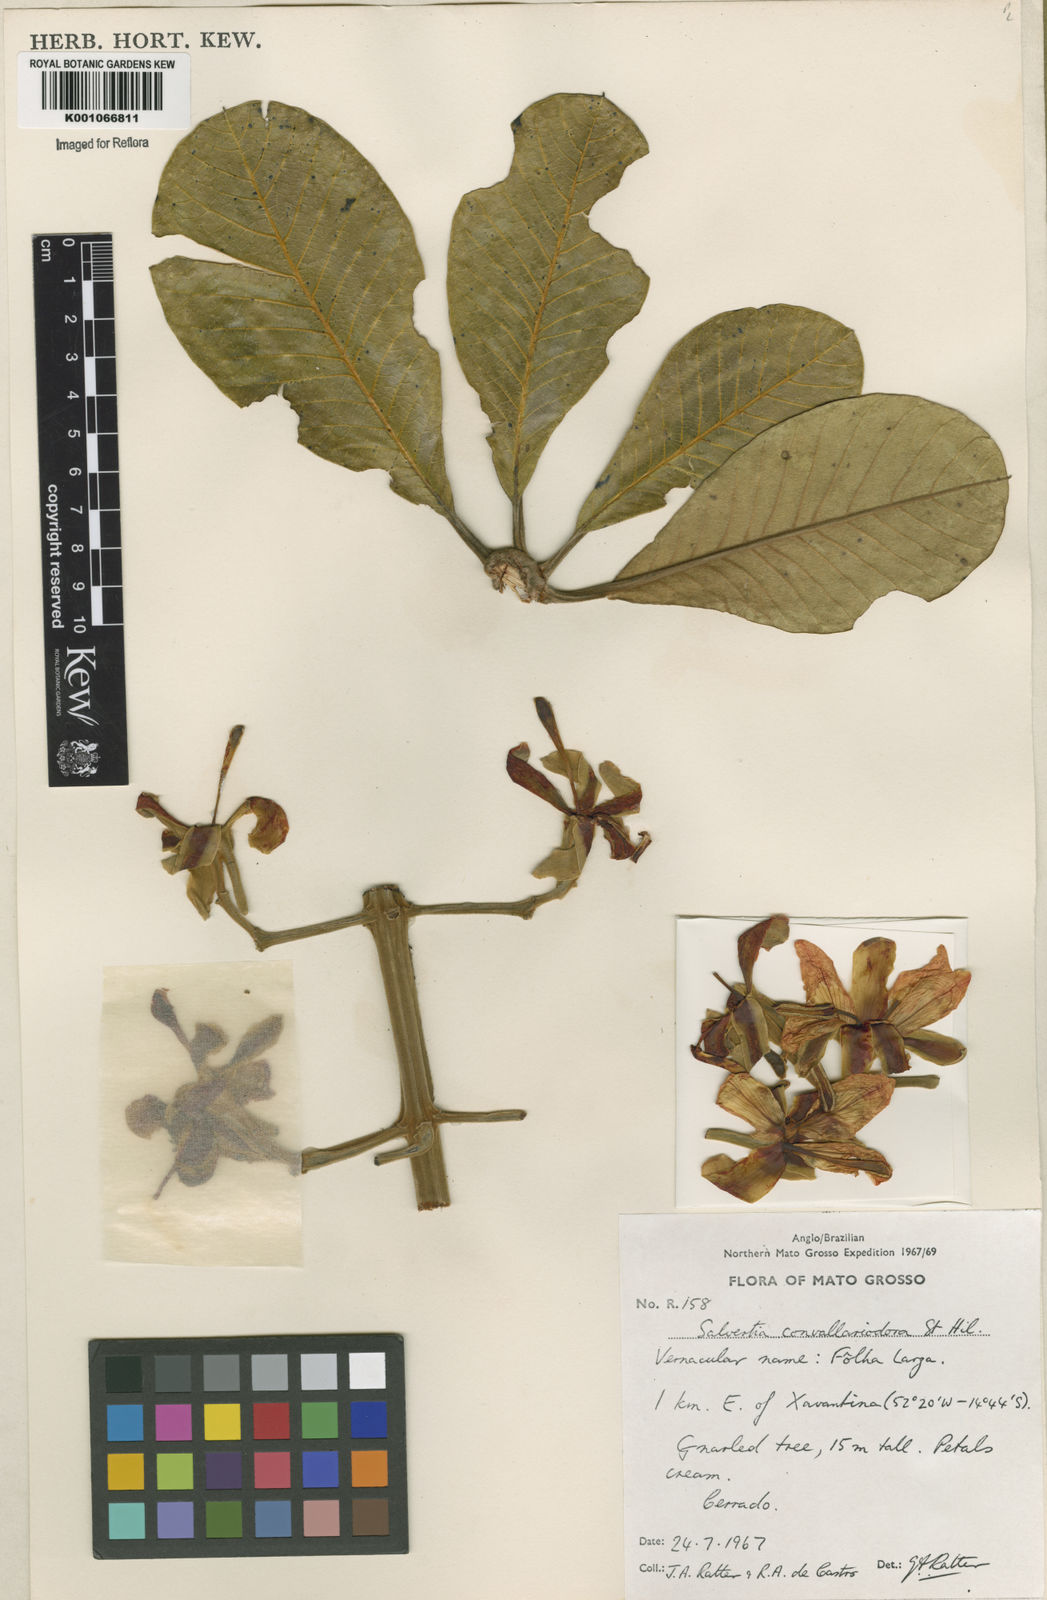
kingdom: Plantae
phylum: Tracheophyta
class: Magnoliopsida
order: Myrtales
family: Vochysiaceae
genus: Salvertia
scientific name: Salvertia convallariodora
